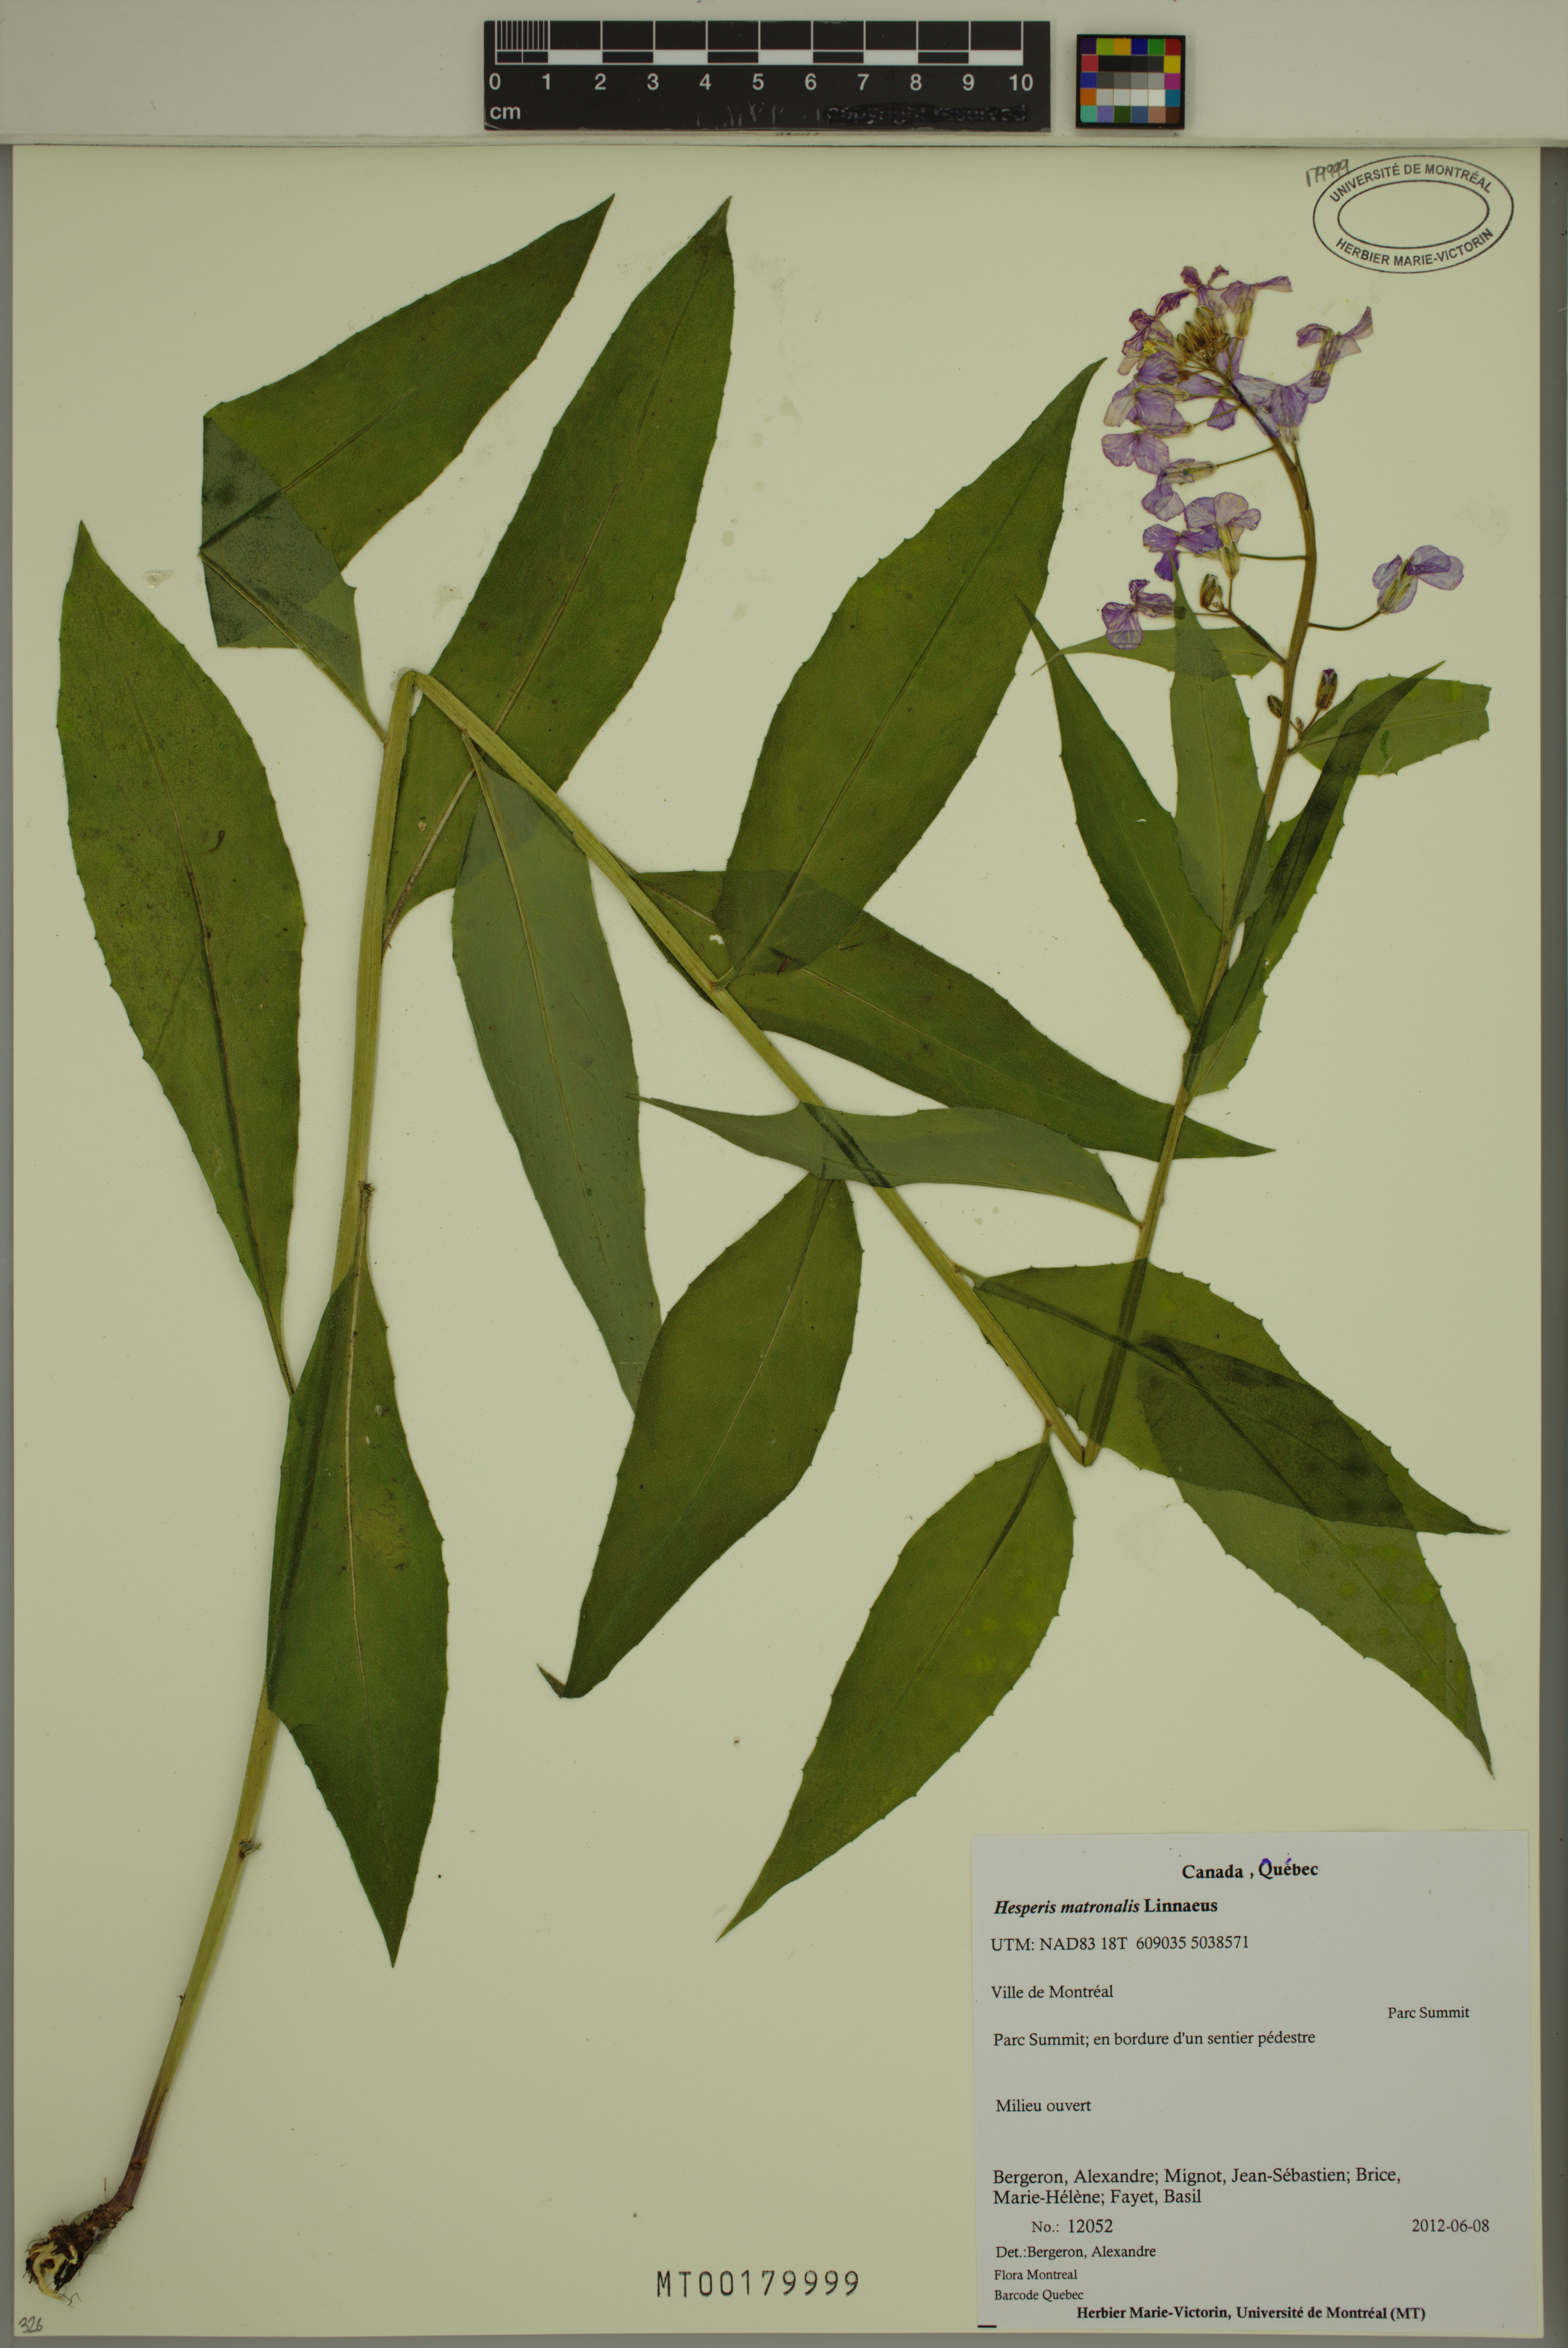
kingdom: Plantae
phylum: Tracheophyta
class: Magnoliopsida
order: Brassicales
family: Brassicaceae
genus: Hesperis
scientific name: Hesperis matronalis
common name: Dame's-violet
